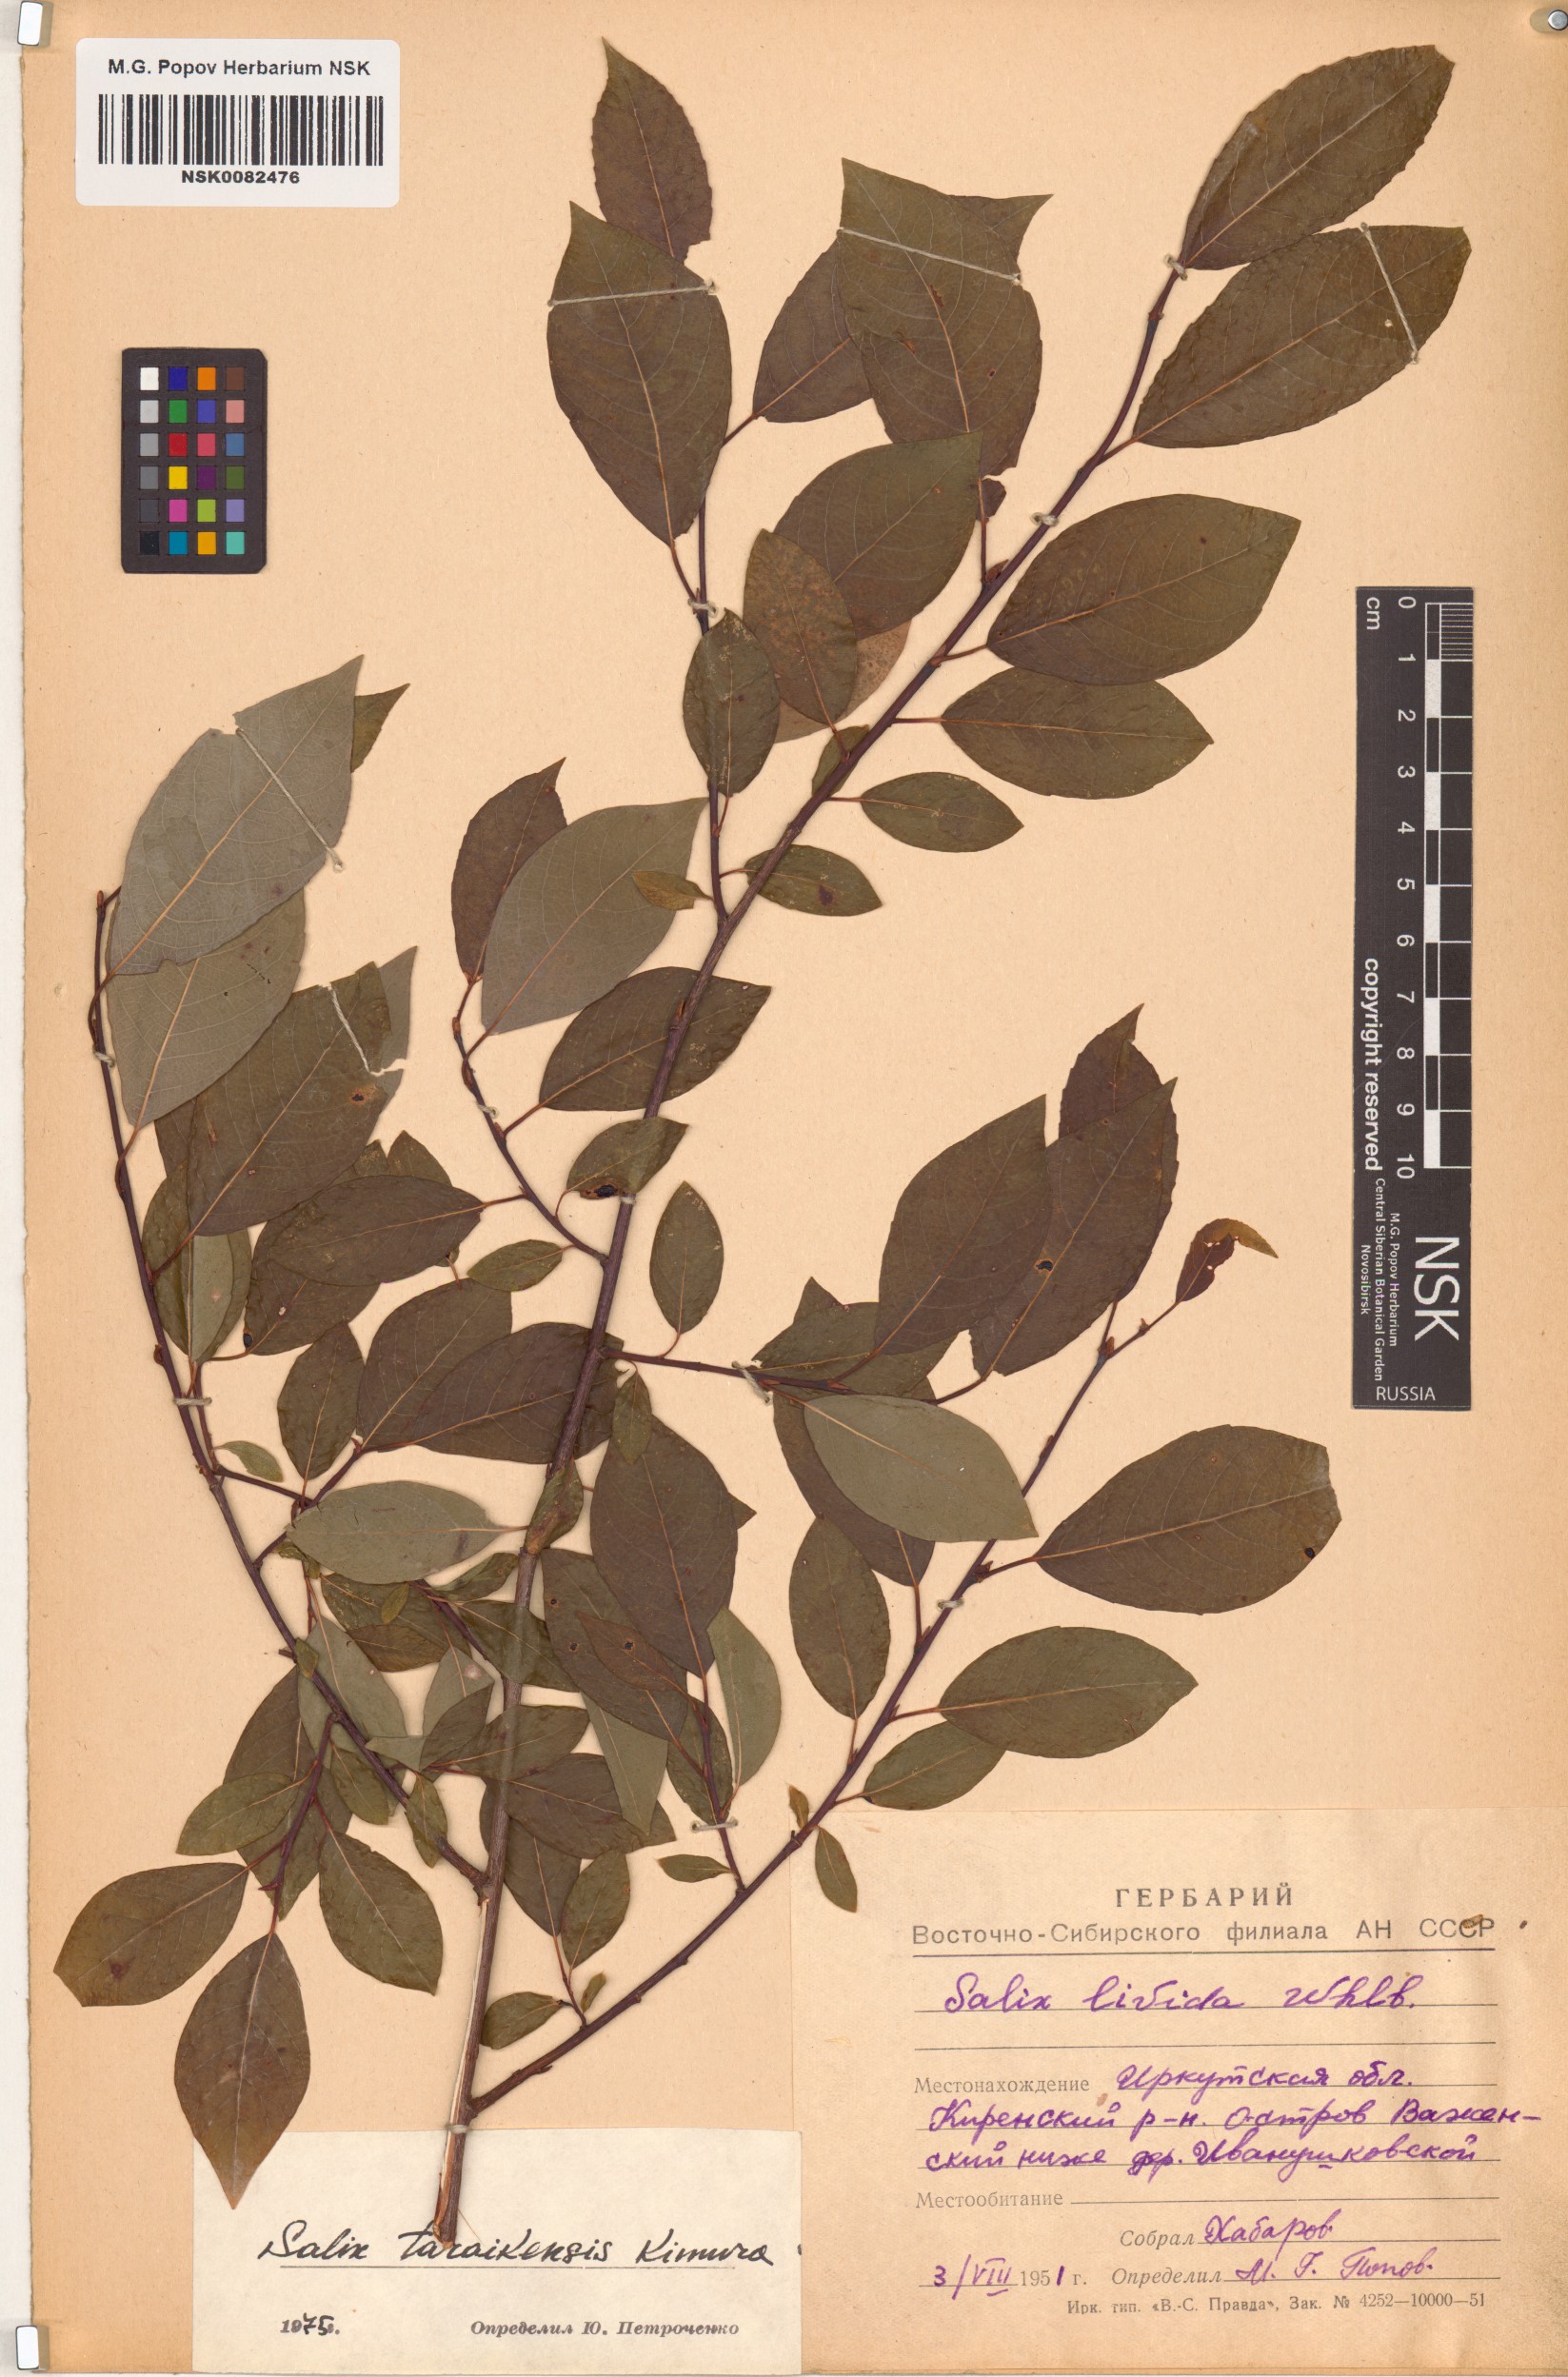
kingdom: Plantae
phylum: Tracheophyta
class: Magnoliopsida
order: Malpighiales
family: Salicaceae
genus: Salix
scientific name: Salix taraikensis
